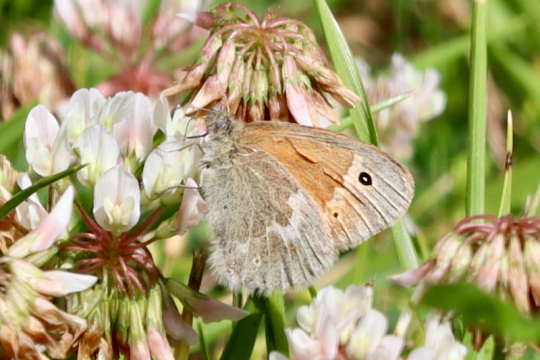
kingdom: Animalia
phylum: Arthropoda
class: Insecta
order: Lepidoptera
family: Nymphalidae
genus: Coenonympha
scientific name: Coenonympha california
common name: California Ringlet
